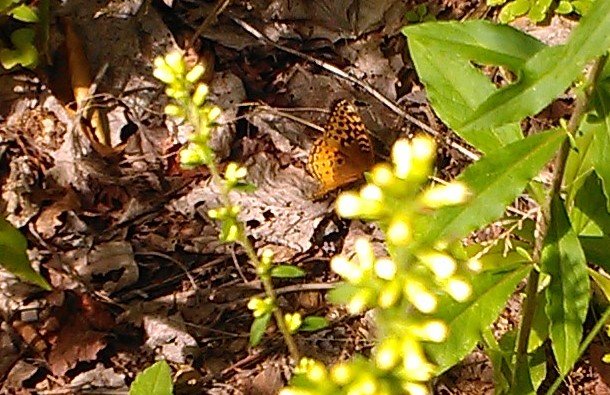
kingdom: Animalia
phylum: Arthropoda
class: Insecta
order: Lepidoptera
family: Nymphalidae
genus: Speyeria
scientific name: Speyeria cybele
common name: Great Spangled Fritillary
